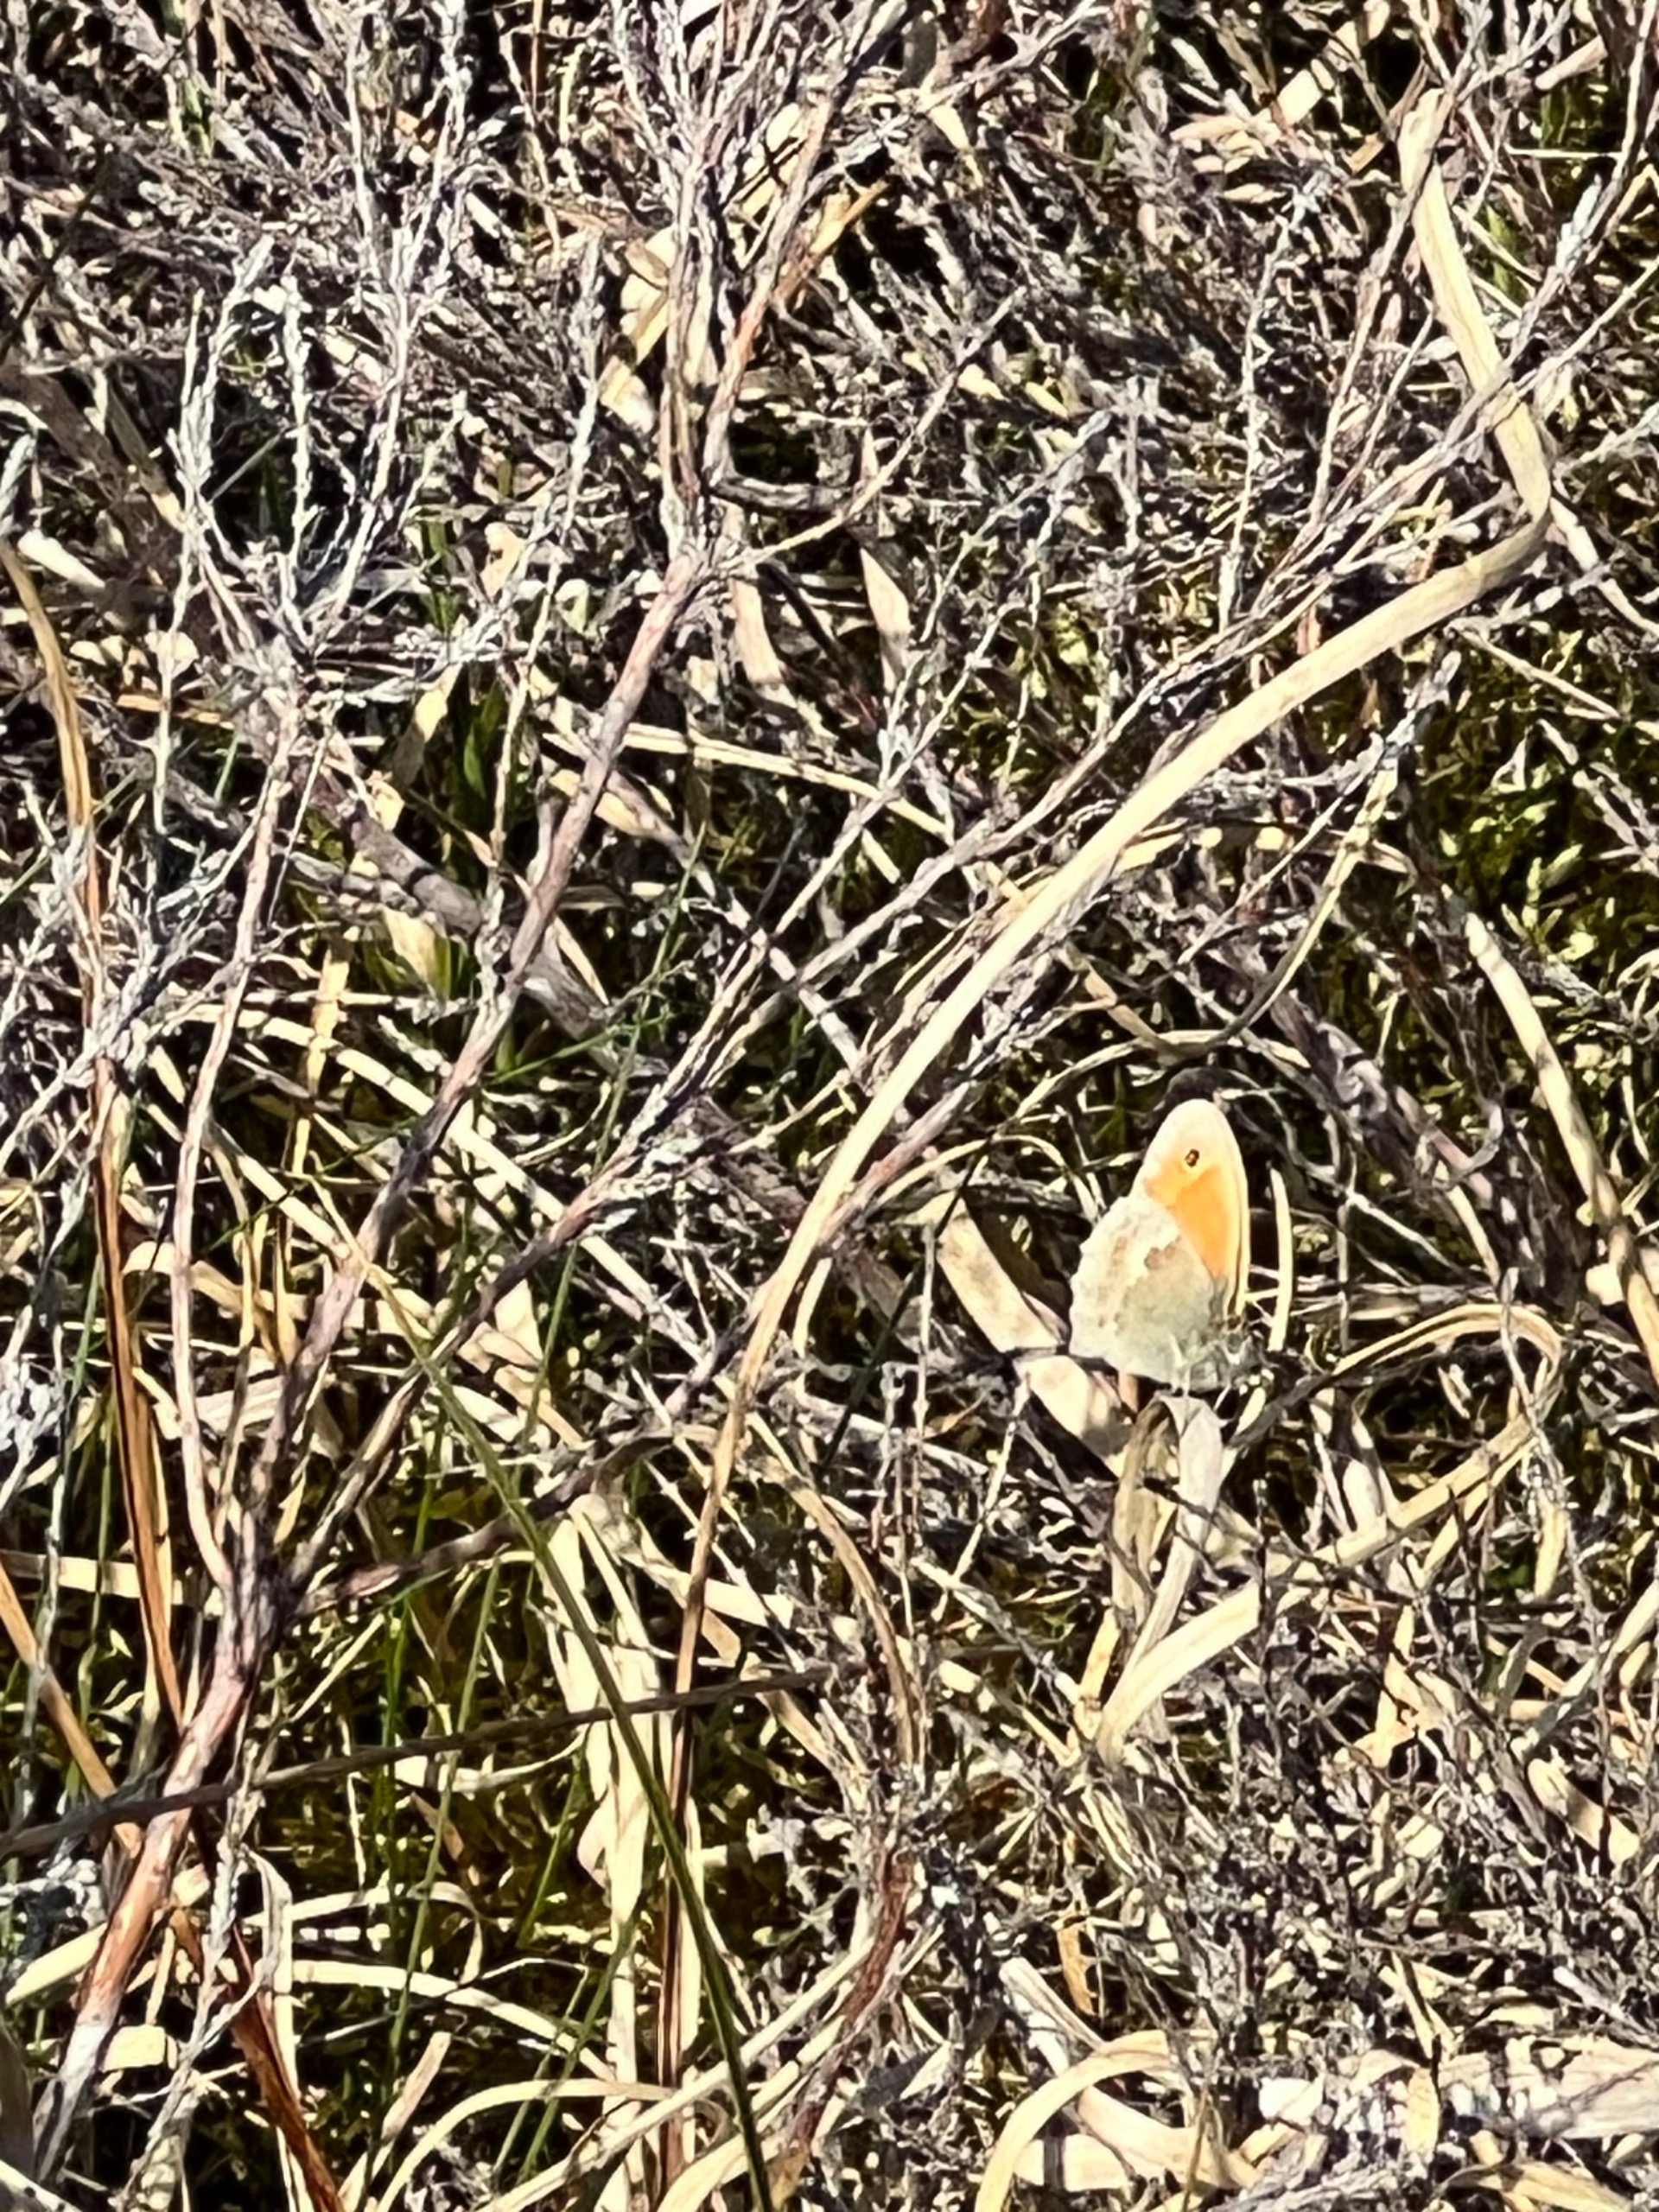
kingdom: Animalia
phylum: Arthropoda
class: Insecta
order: Lepidoptera
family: Nymphalidae
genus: Coenonympha
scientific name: Coenonympha pamphilus
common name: Okkergul randøje
